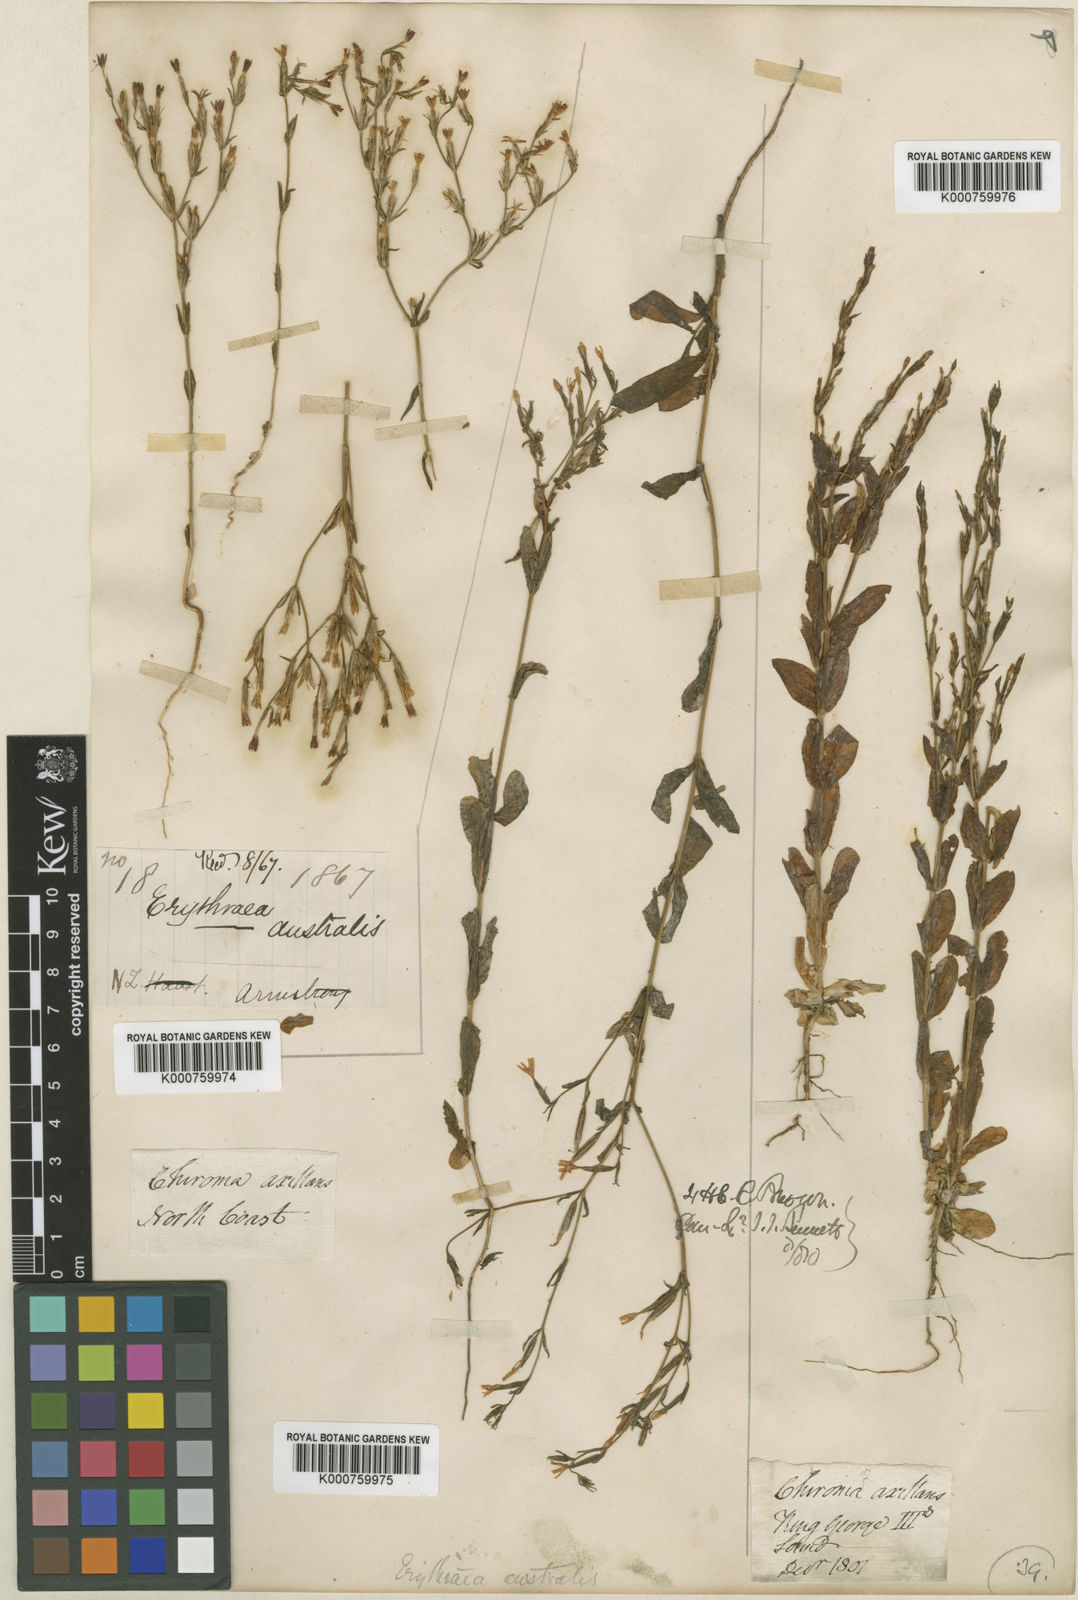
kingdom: Plantae
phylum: Tracheophyta
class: Magnoliopsida
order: Gentianales
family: Gentianaceae
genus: Centaurium
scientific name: Centaurium
